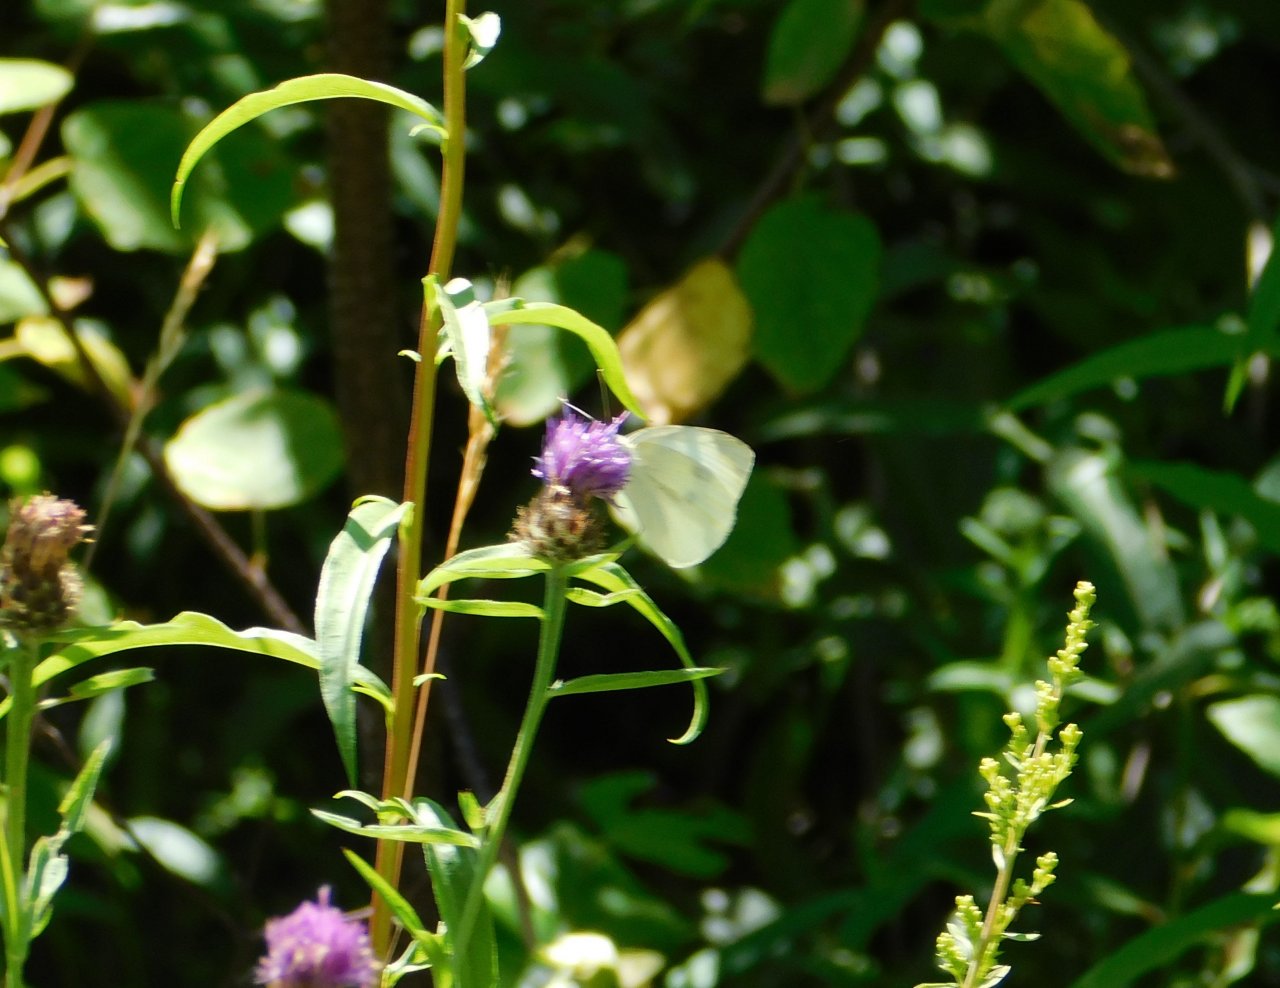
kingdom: Animalia
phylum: Arthropoda
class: Insecta
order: Lepidoptera
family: Pieridae
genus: Pieris
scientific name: Pieris rapae
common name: Cabbage White
